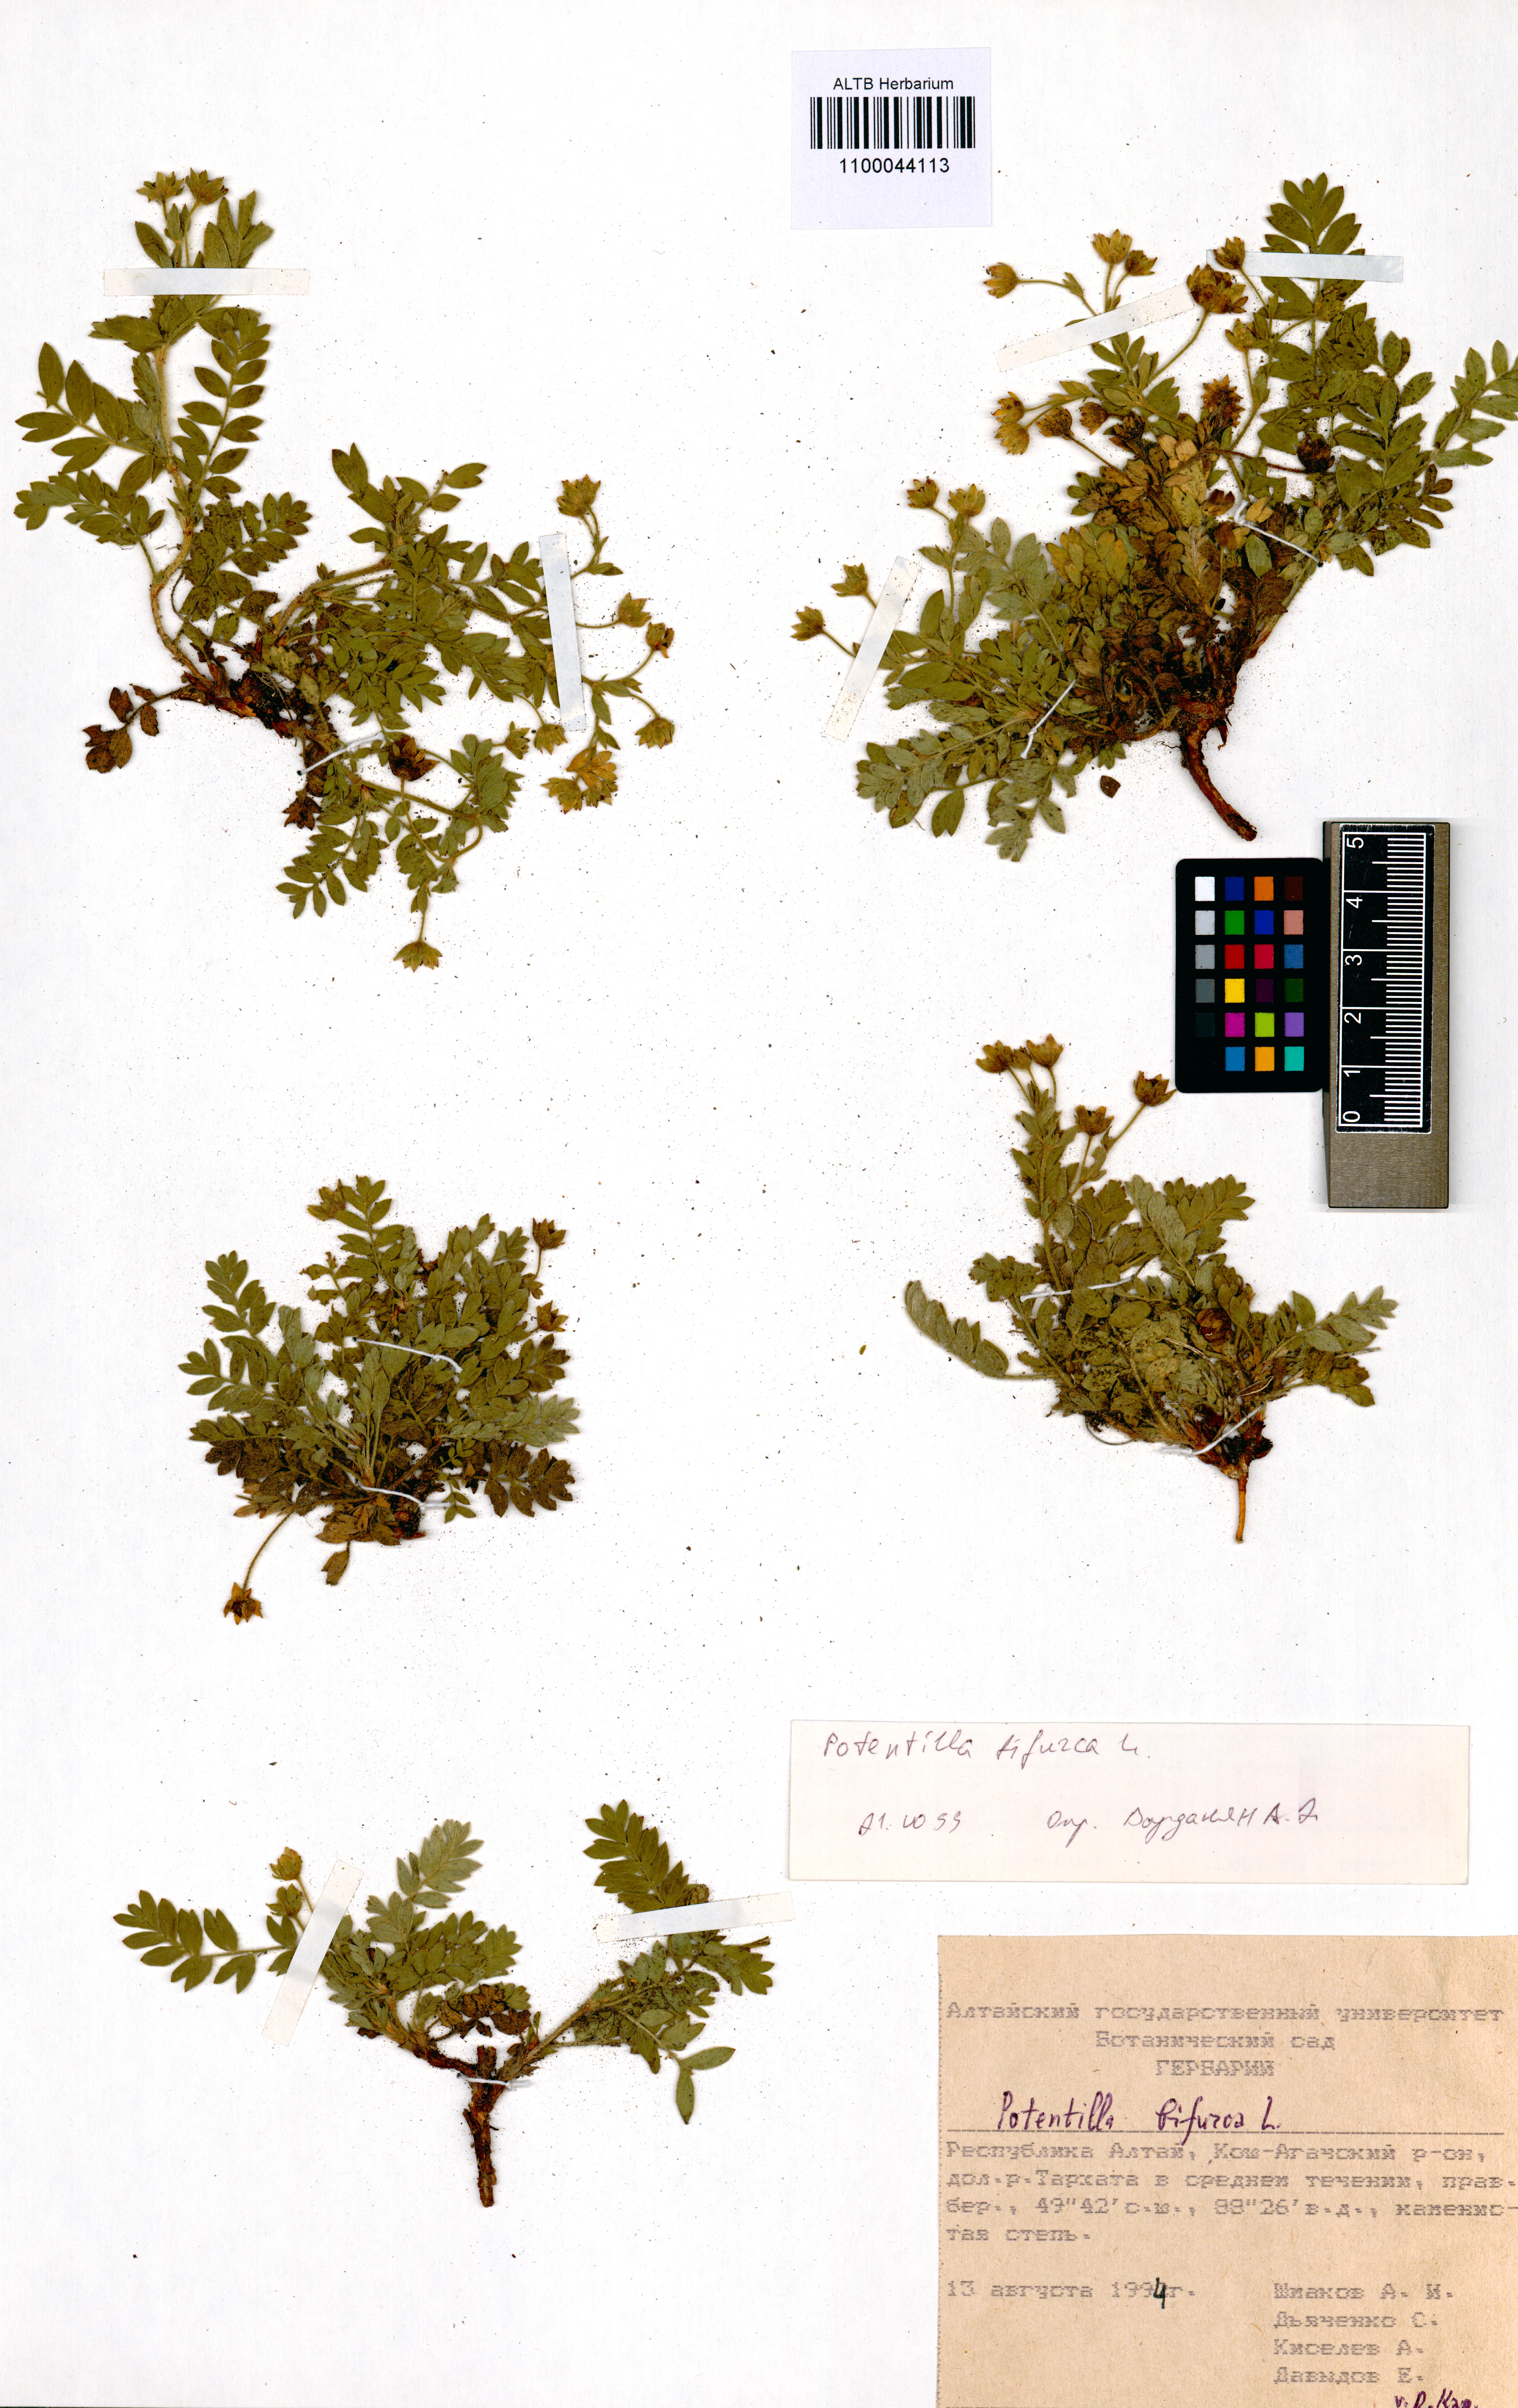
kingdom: Plantae
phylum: Tracheophyta
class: Magnoliopsida
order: Rosales
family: Rosaceae
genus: Sibbaldianthe
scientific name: Sibbaldianthe bifurca
